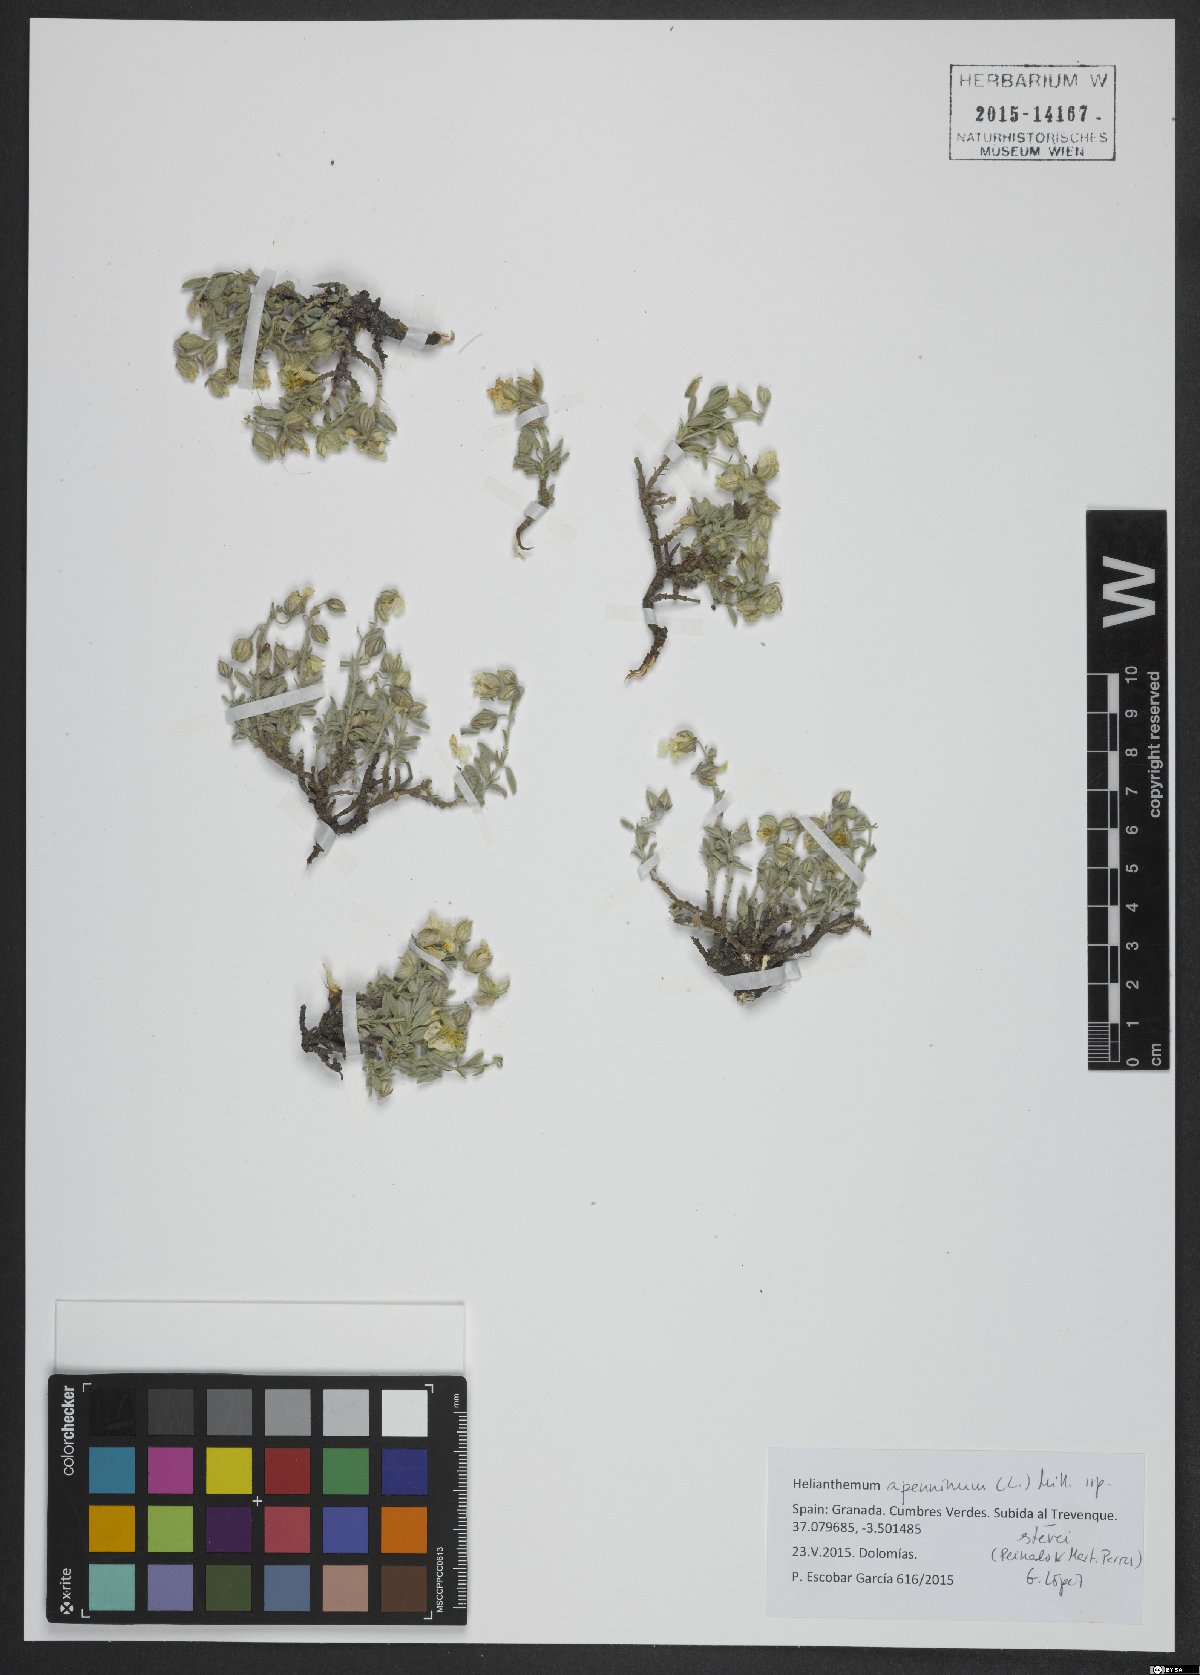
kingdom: Plantae
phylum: Tracheophyta
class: Magnoliopsida
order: Malvales
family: Cistaceae
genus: Helianthemum
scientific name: Helianthemum apenninum
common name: White rock-rose
